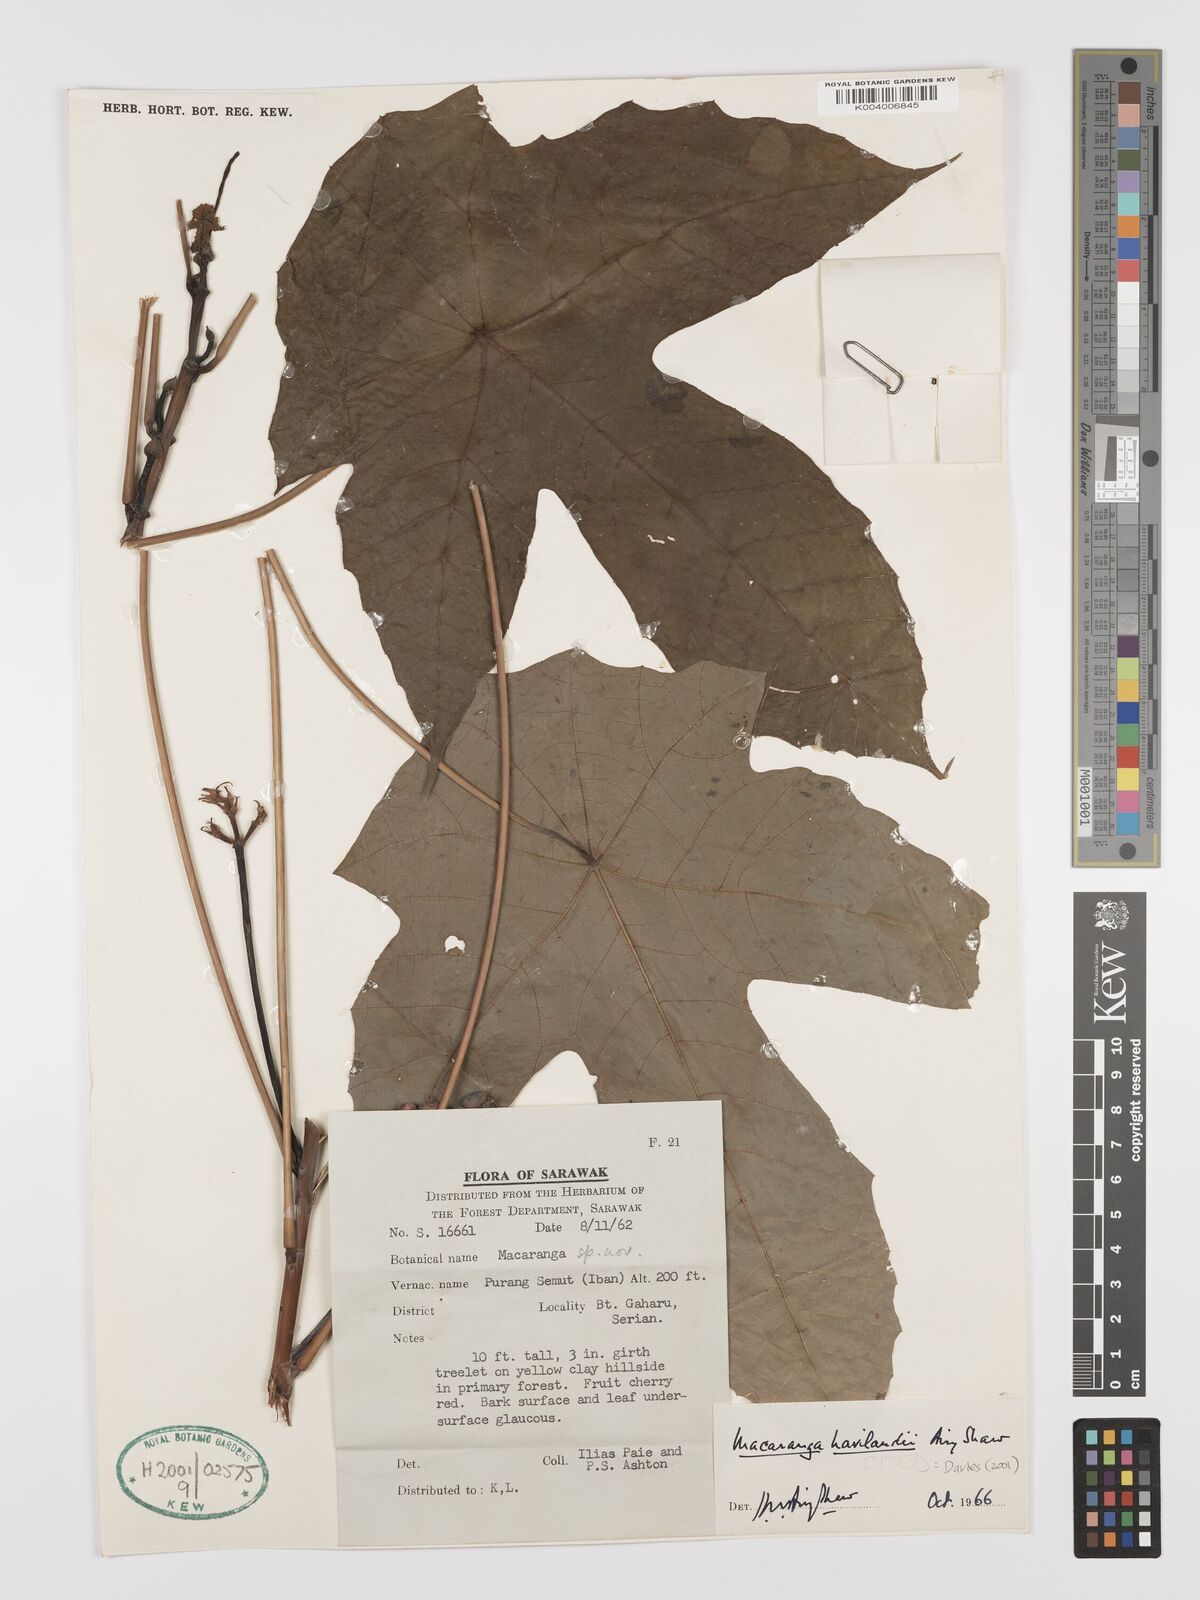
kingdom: Plantae
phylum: Tracheophyta
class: Magnoliopsida
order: Malpighiales
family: Euphorbiaceae
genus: Macaranga
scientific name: Macaranga havilandii
